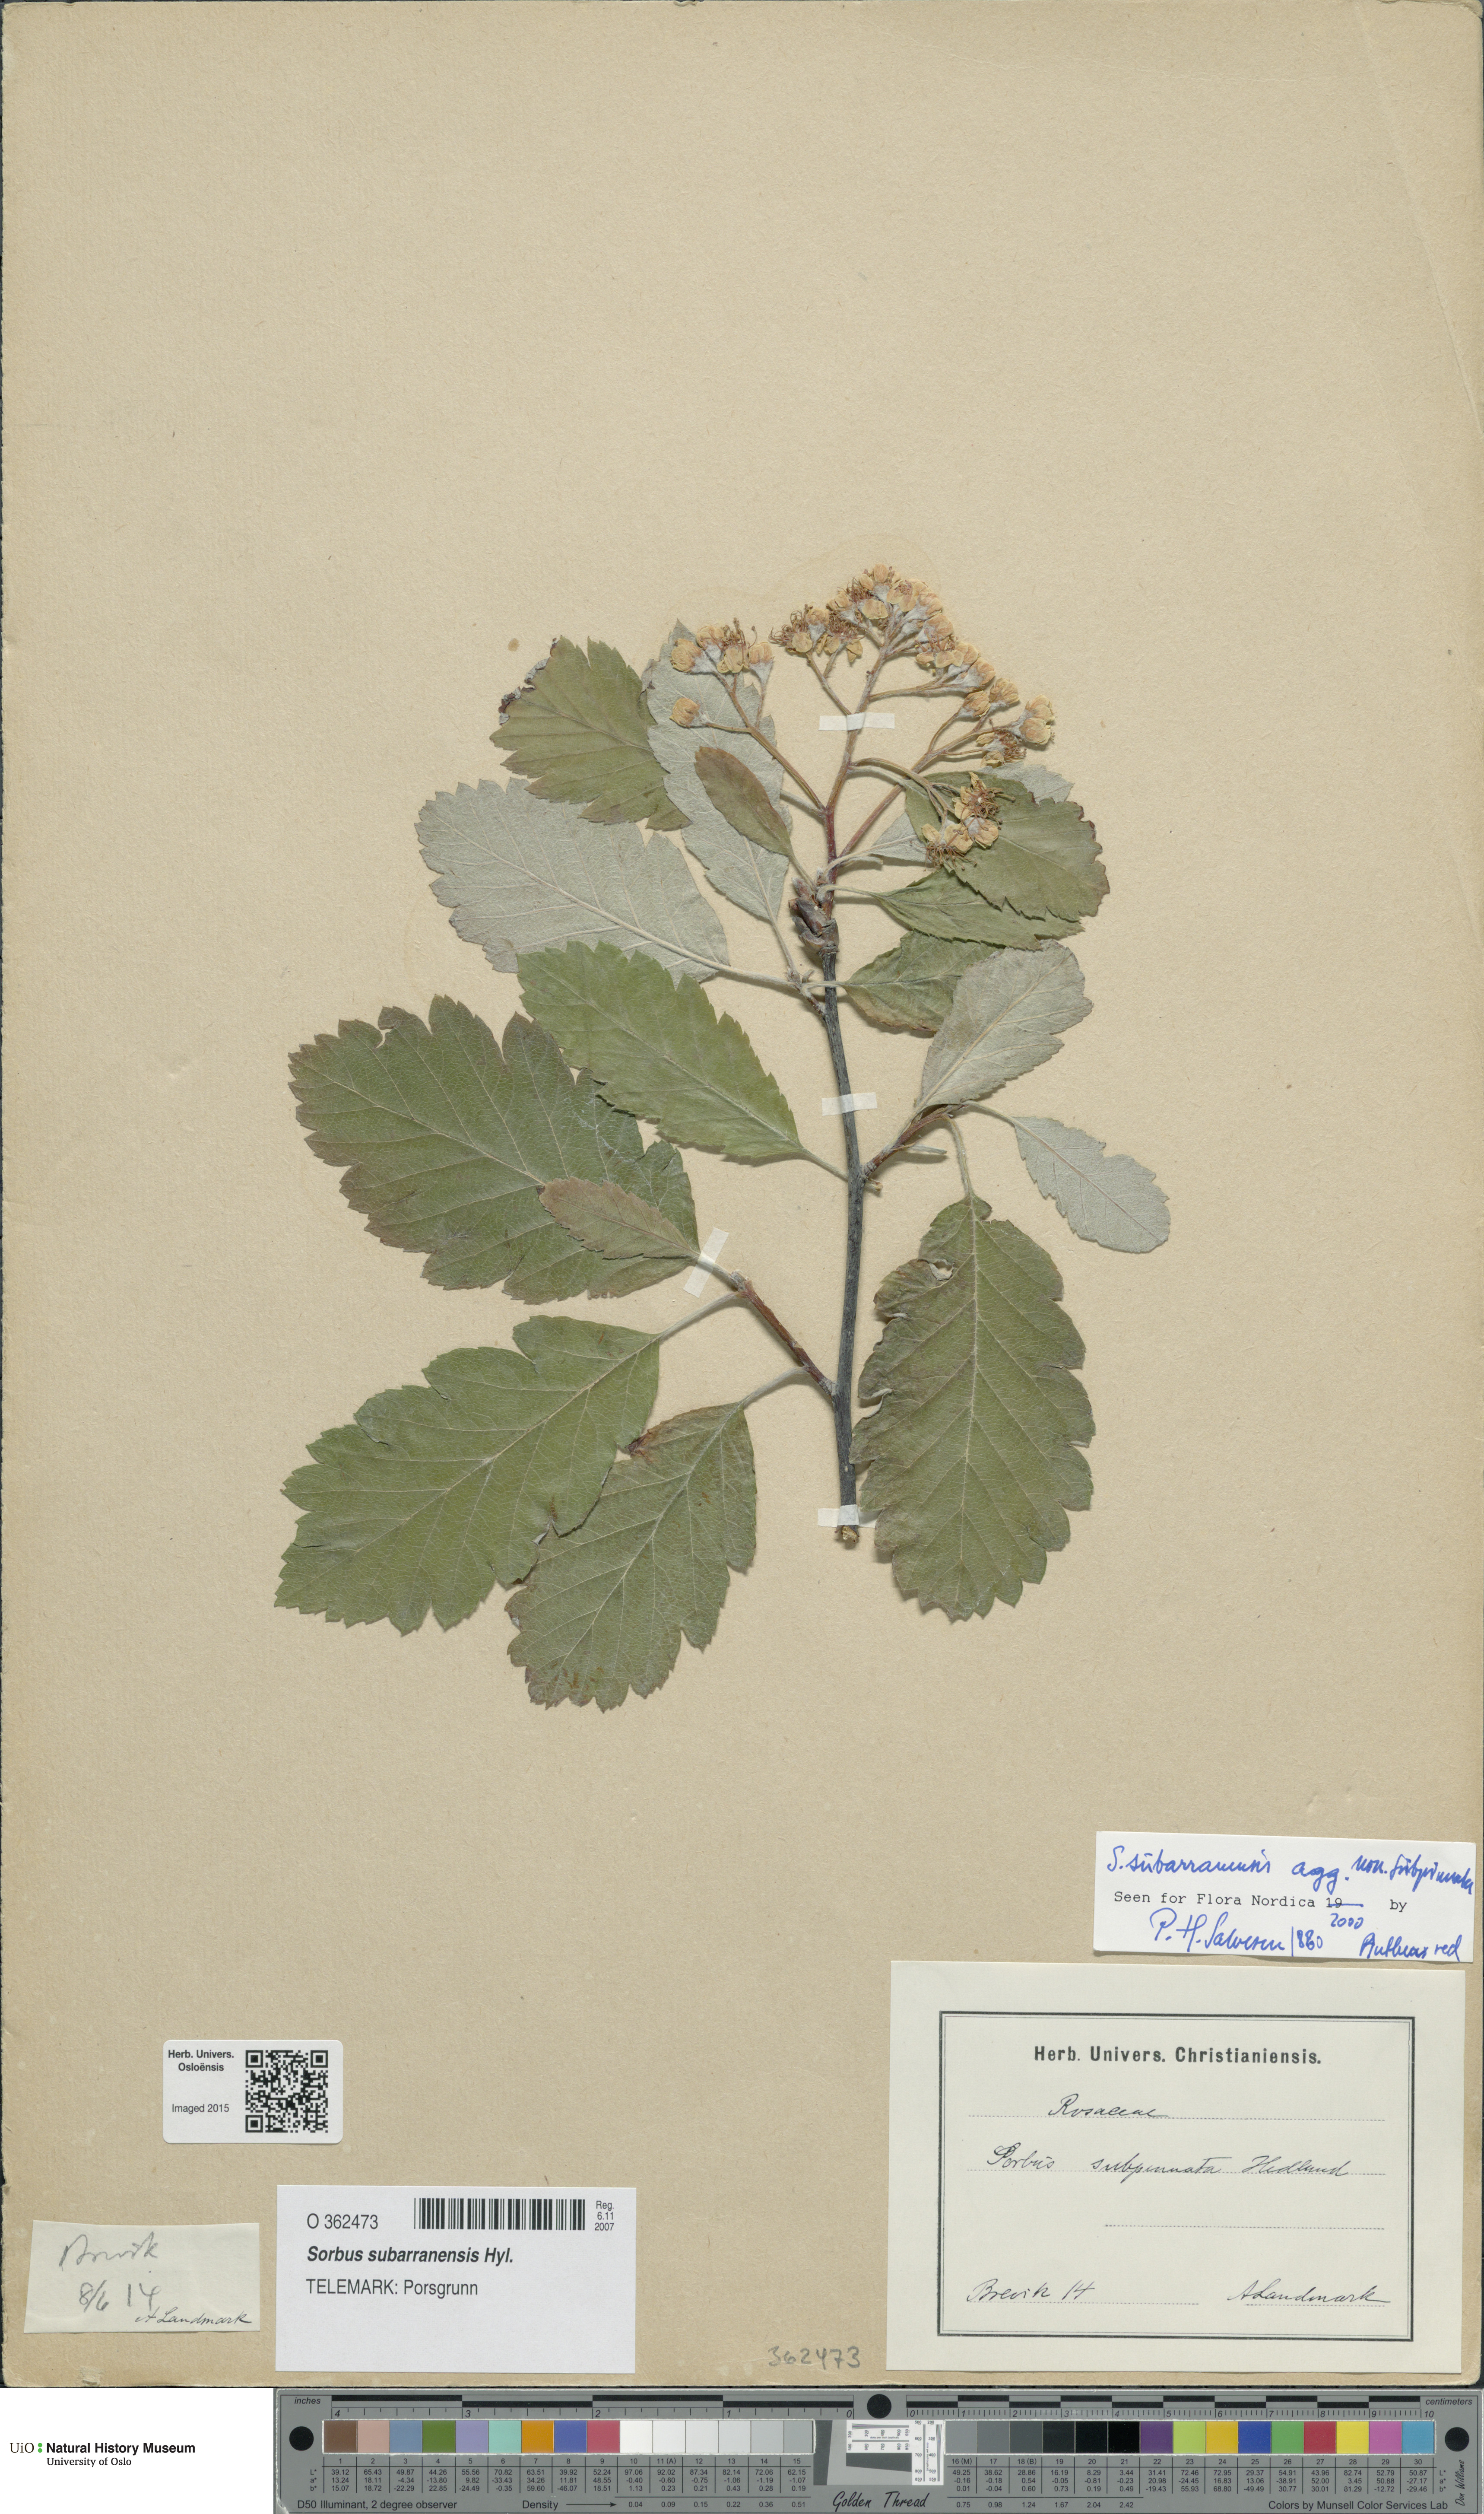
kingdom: Plantae
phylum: Tracheophyta
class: Magnoliopsida
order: Rosales
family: Rosaceae
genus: Hedlundia
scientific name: Hedlundia subarranensis
